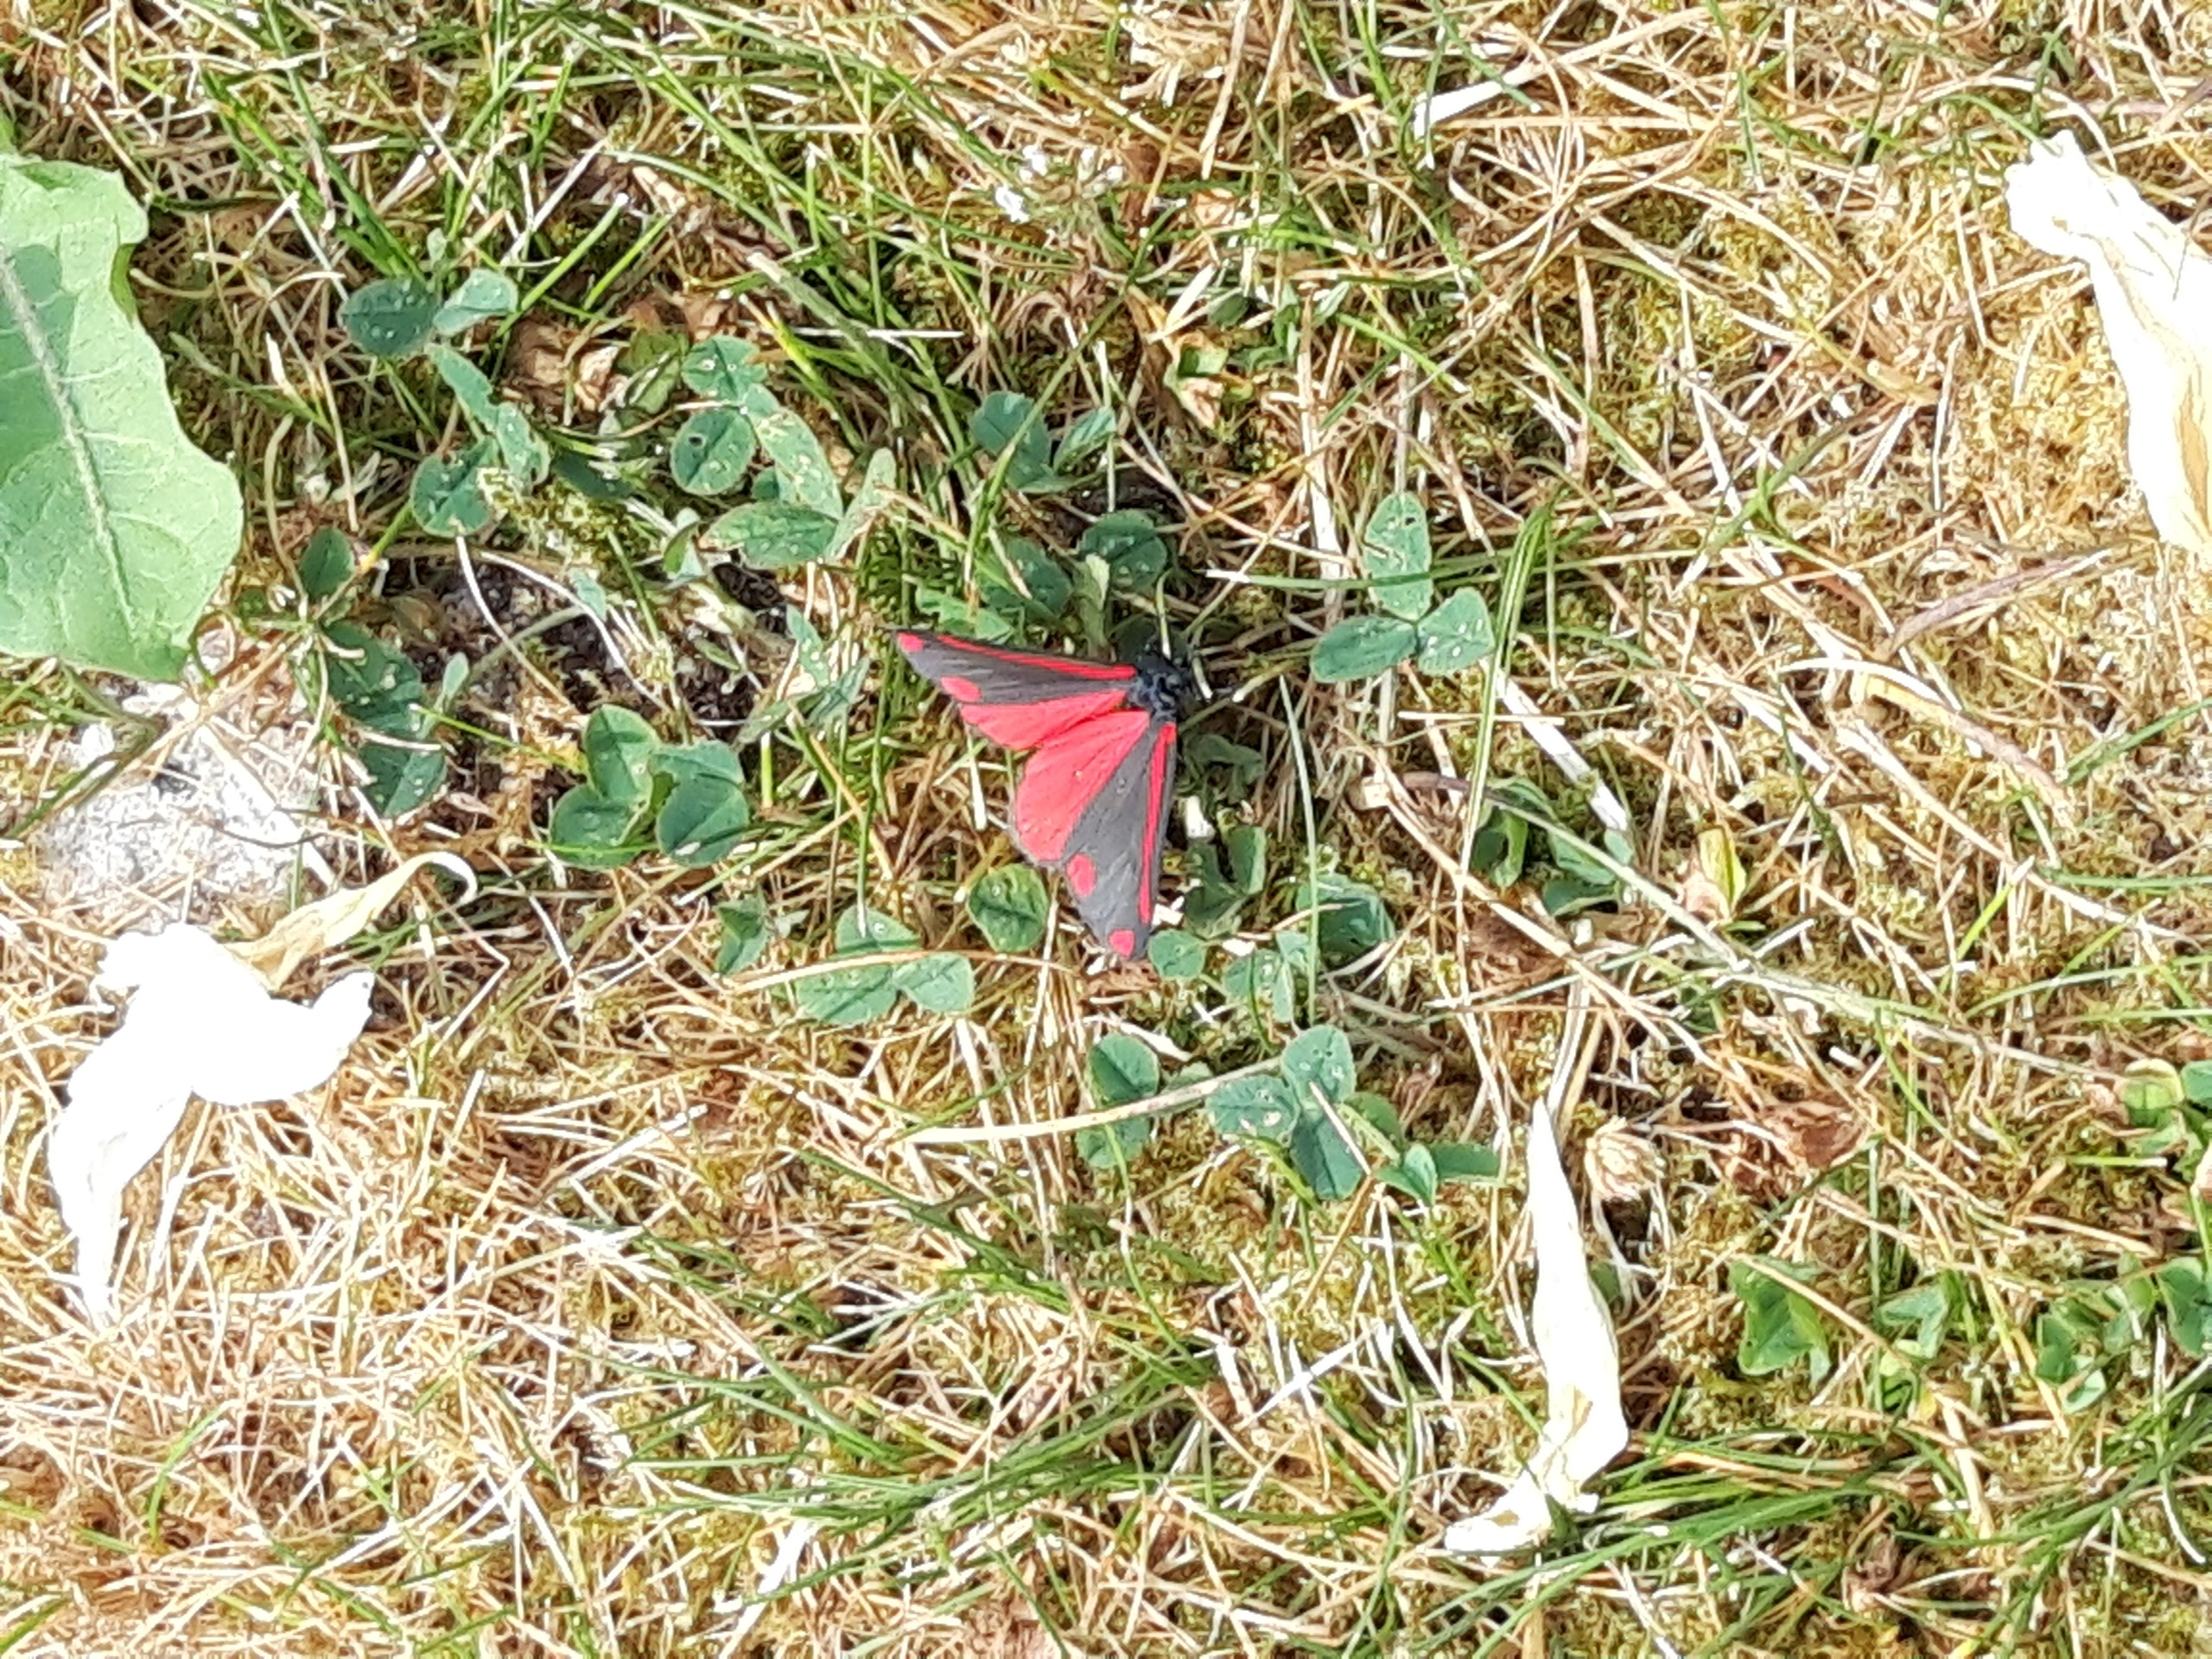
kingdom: Animalia
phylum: Arthropoda
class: Insecta
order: Lepidoptera
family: Erebidae
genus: Tyria
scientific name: Tyria jacobaeae
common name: Blodplet
